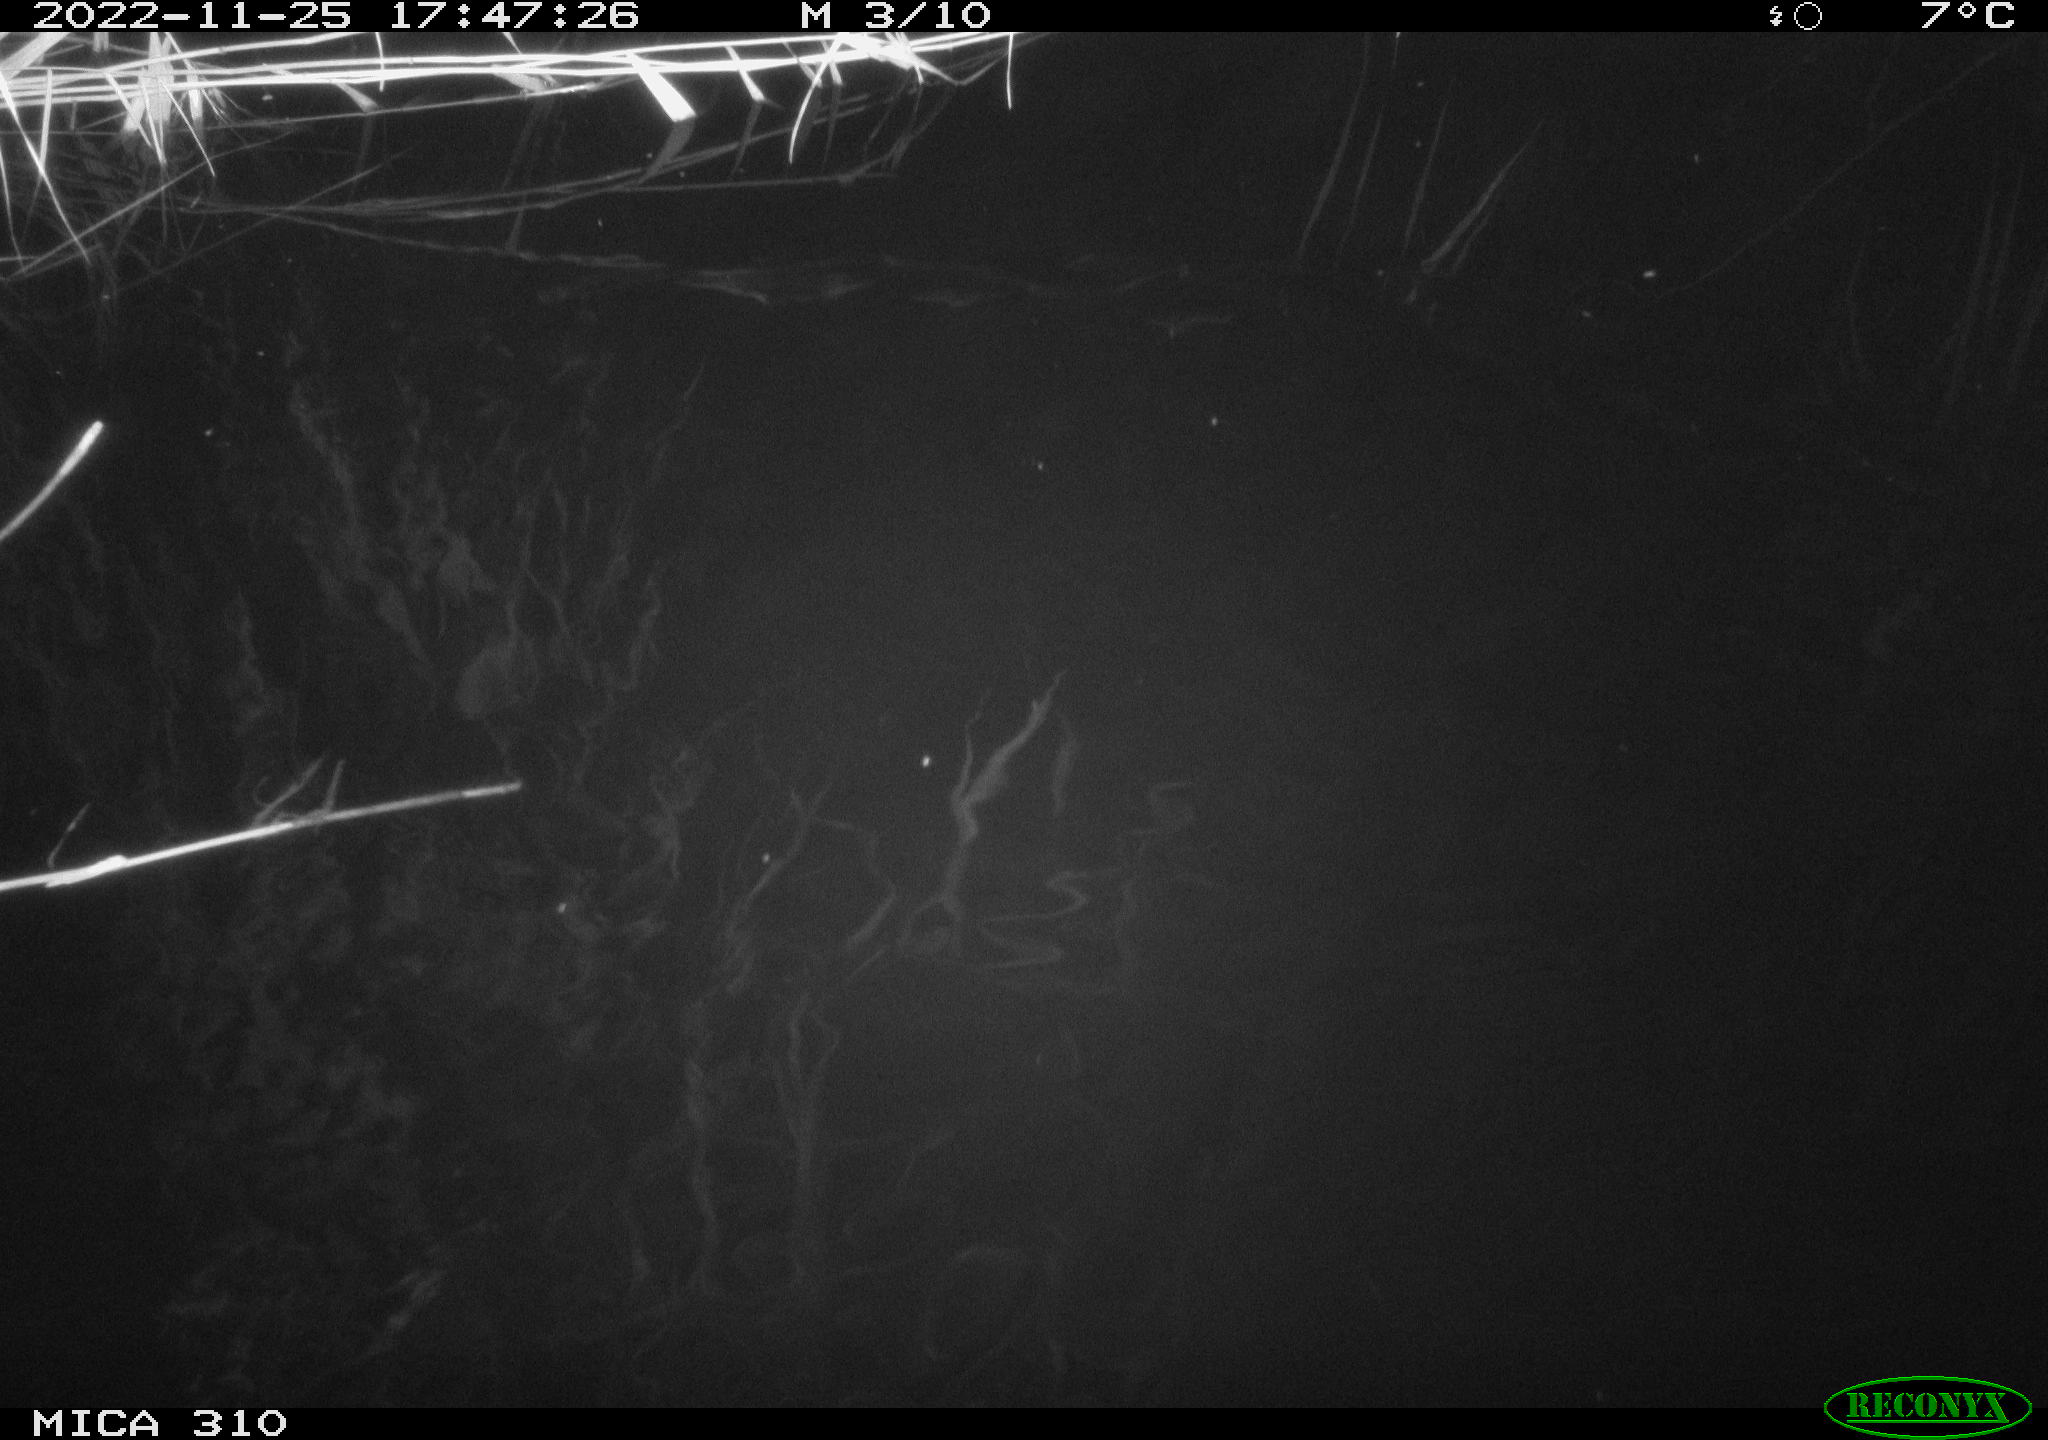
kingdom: Animalia
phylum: Chordata
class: Mammalia
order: Rodentia
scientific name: Rodentia
